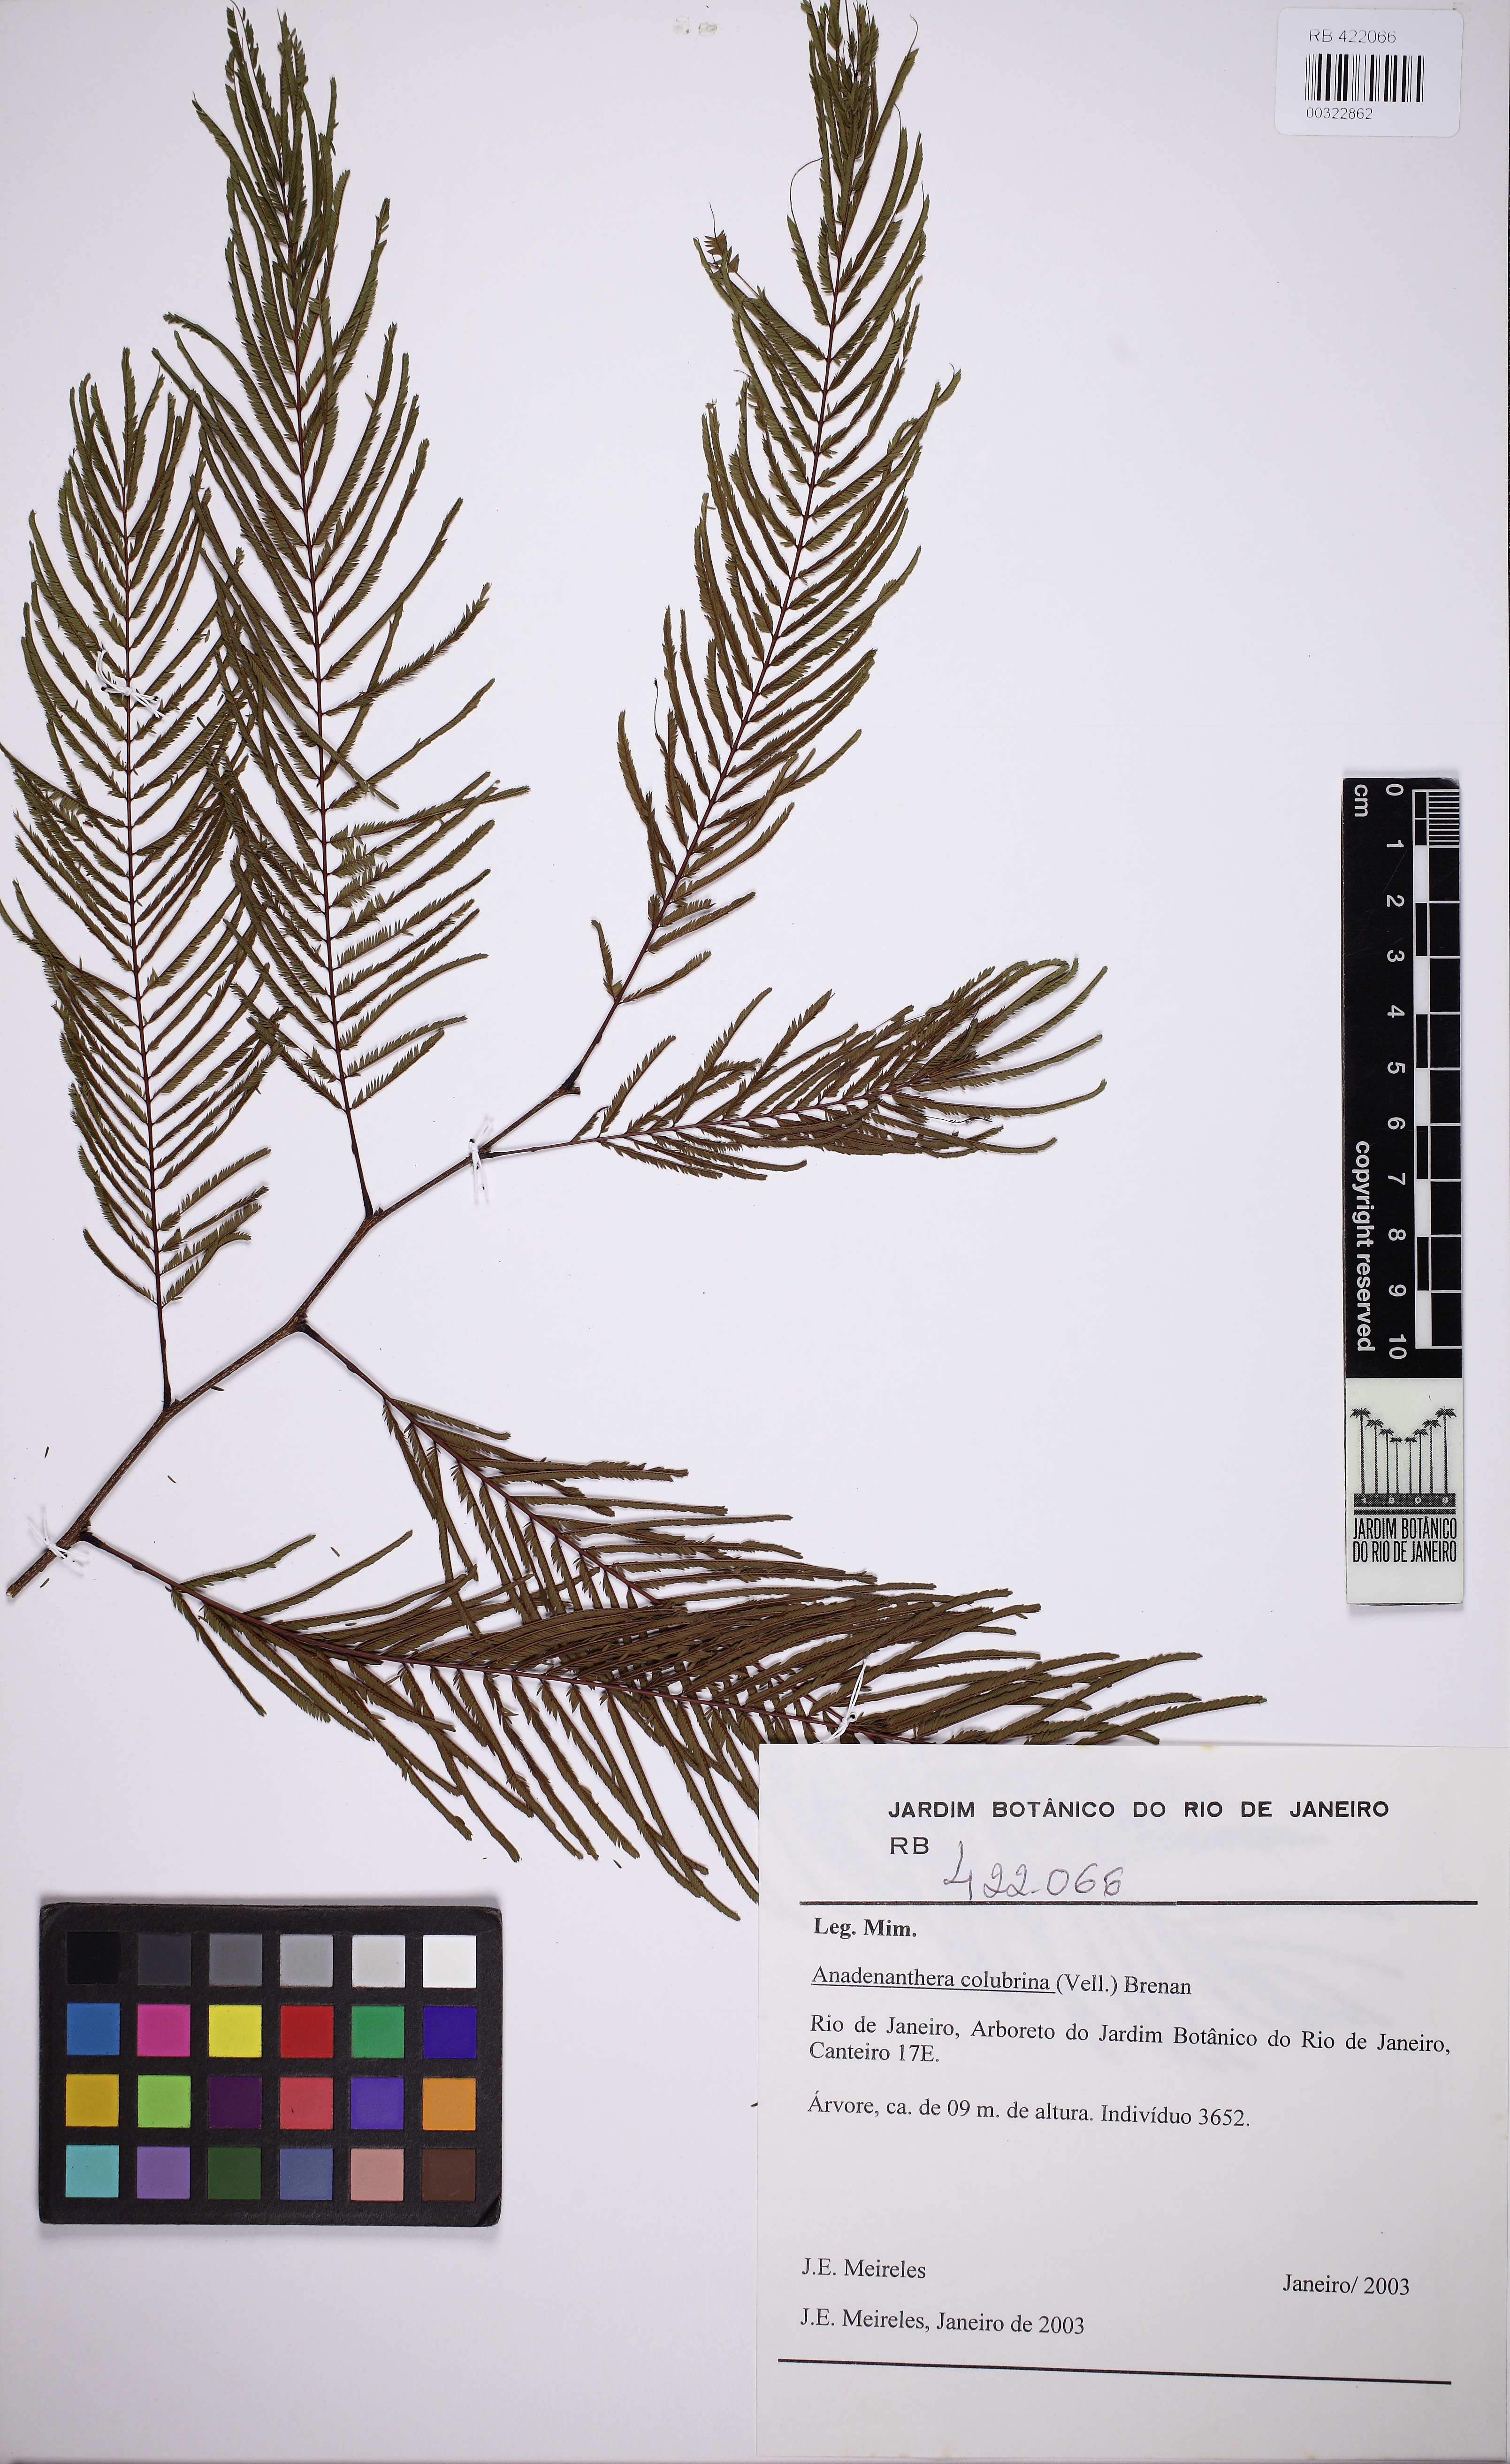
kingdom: Plantae
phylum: Tracheophyta
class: Magnoliopsida
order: Fabales
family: Fabaceae
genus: Anadenanthera
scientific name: Anadenanthera colubrina
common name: Curupay
